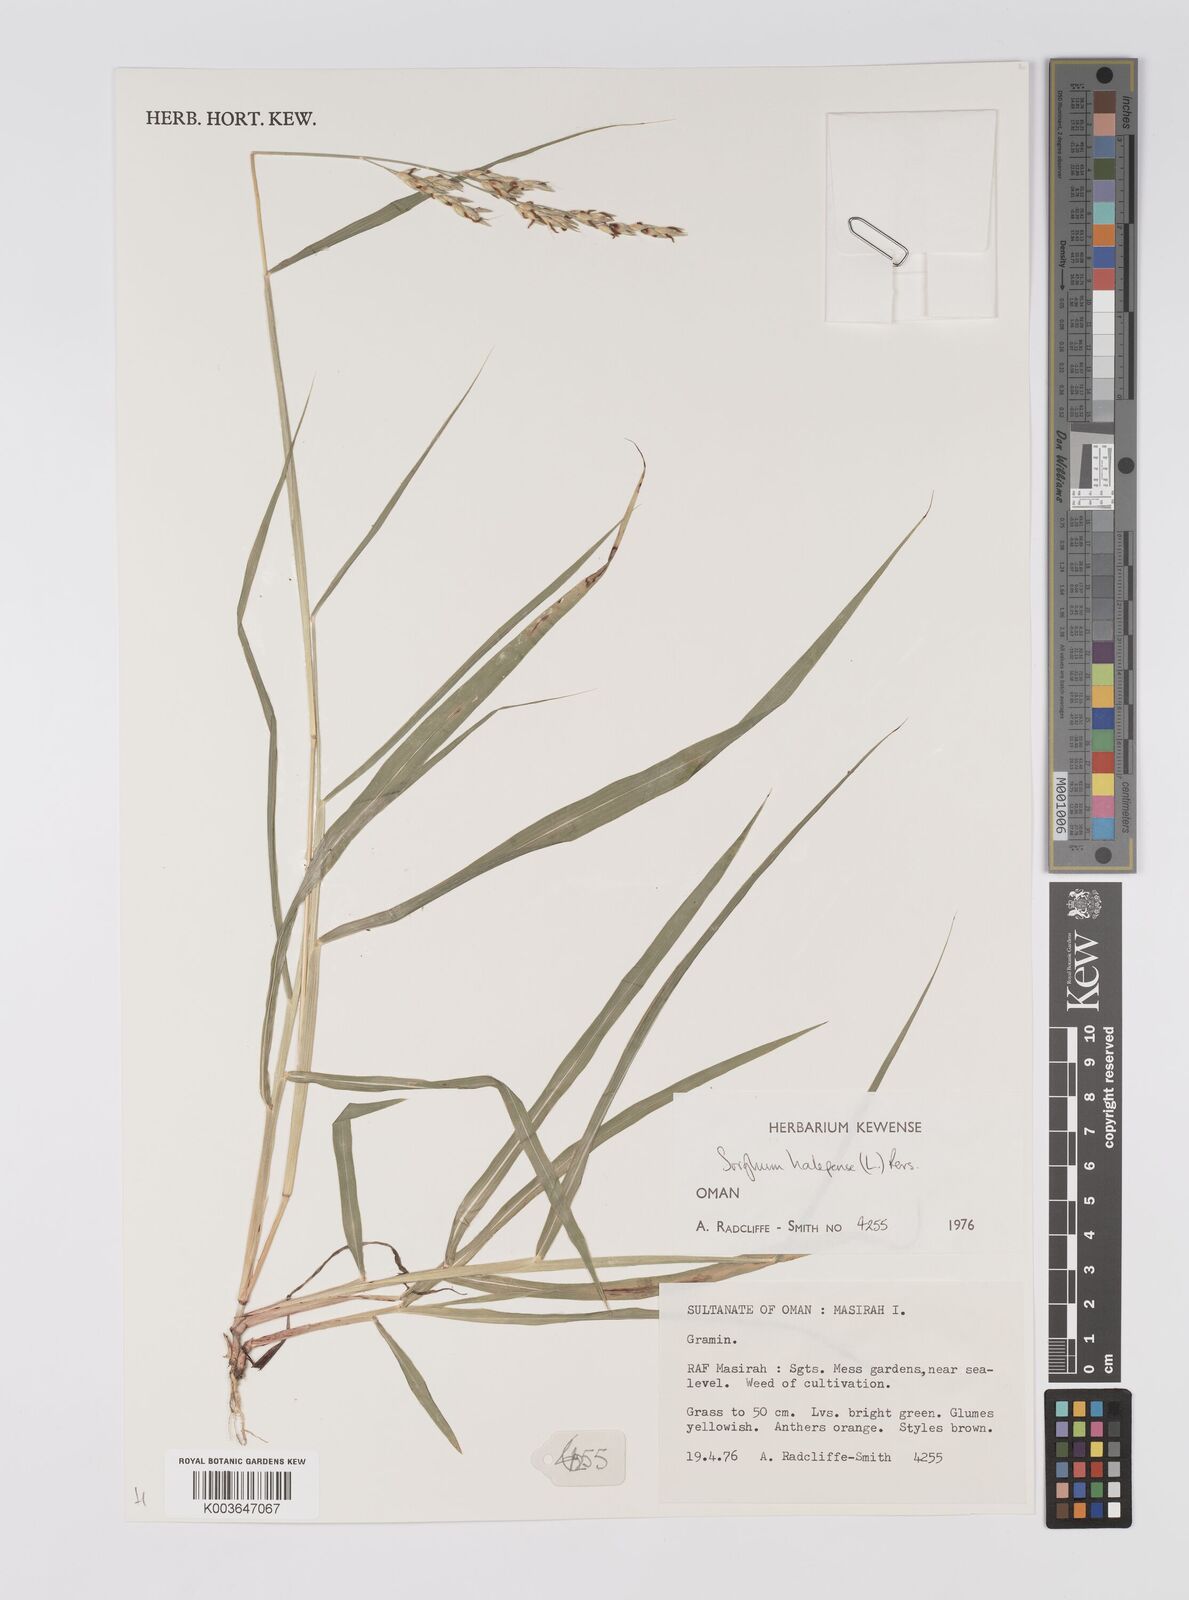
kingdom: Plantae
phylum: Tracheophyta
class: Liliopsida
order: Poales
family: Poaceae
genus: Sorghum
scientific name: Sorghum halepense
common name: Johnson-grass
